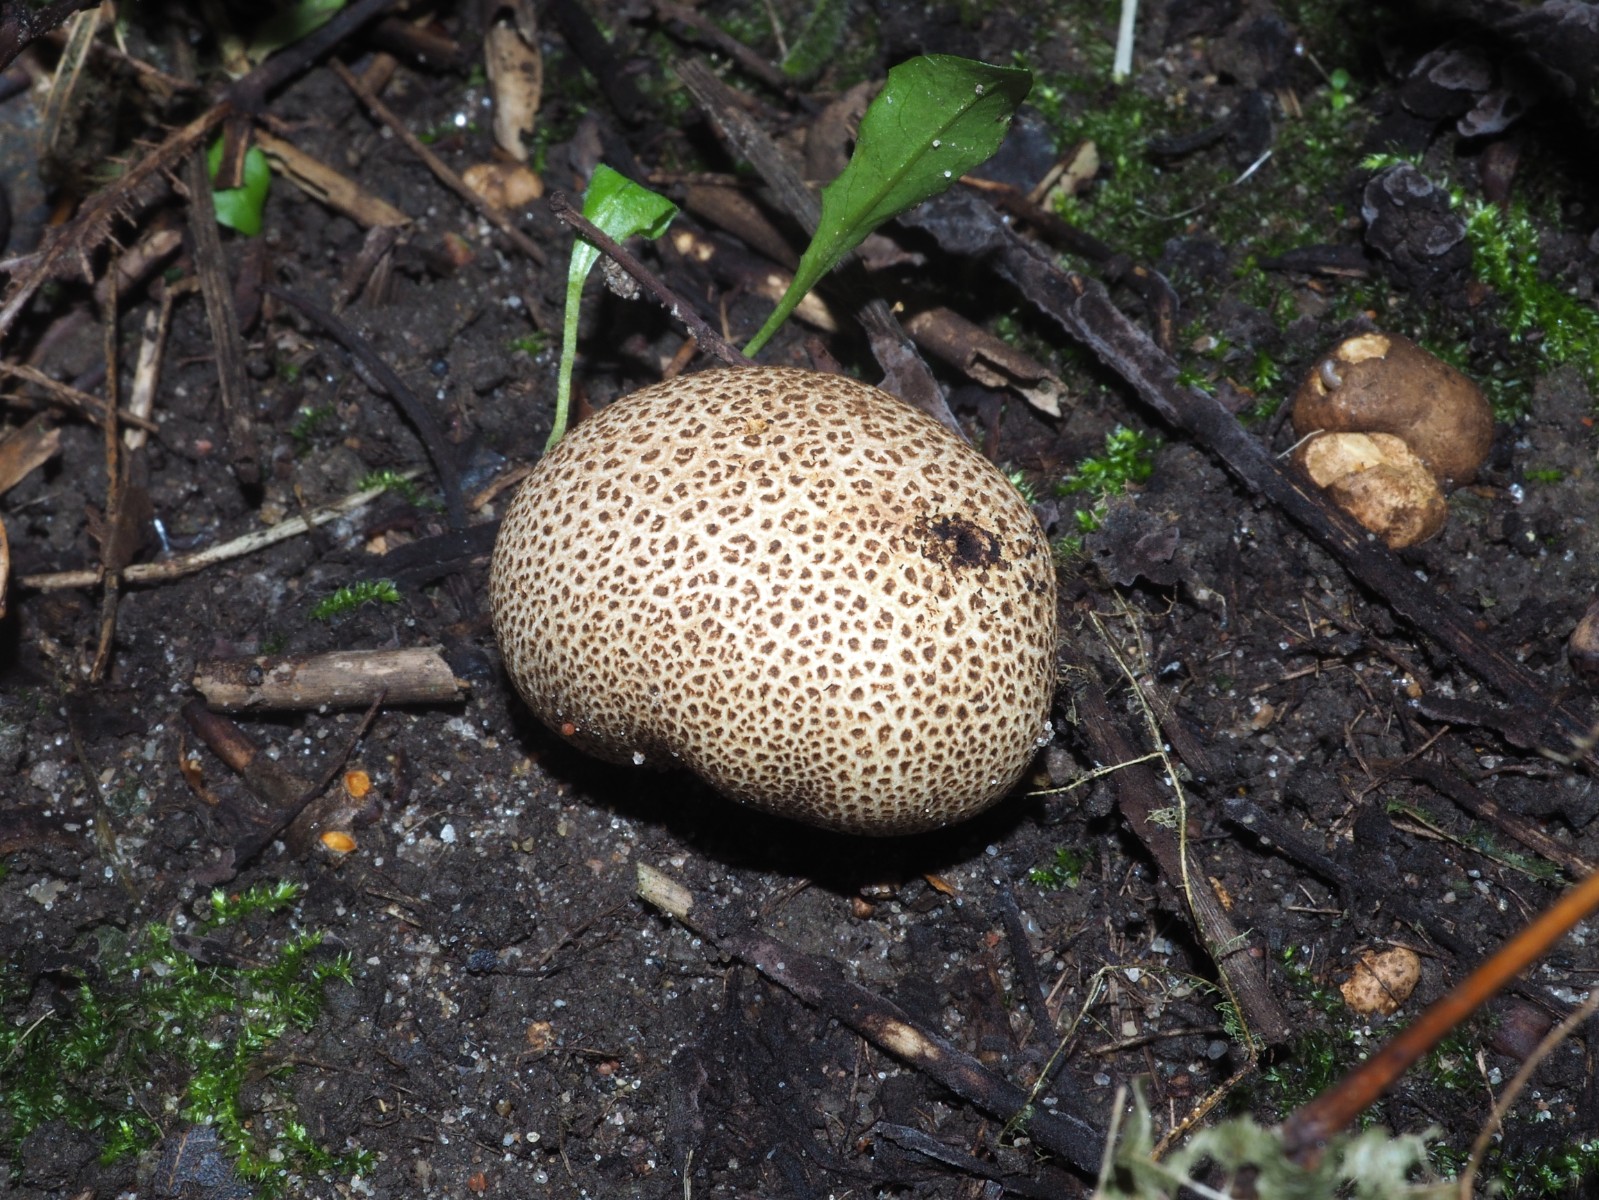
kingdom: Fungi
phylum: Basidiomycota
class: Agaricomycetes
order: Boletales
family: Sclerodermataceae
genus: Scleroderma
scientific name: Scleroderma areolatum
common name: plettet bruskbold
